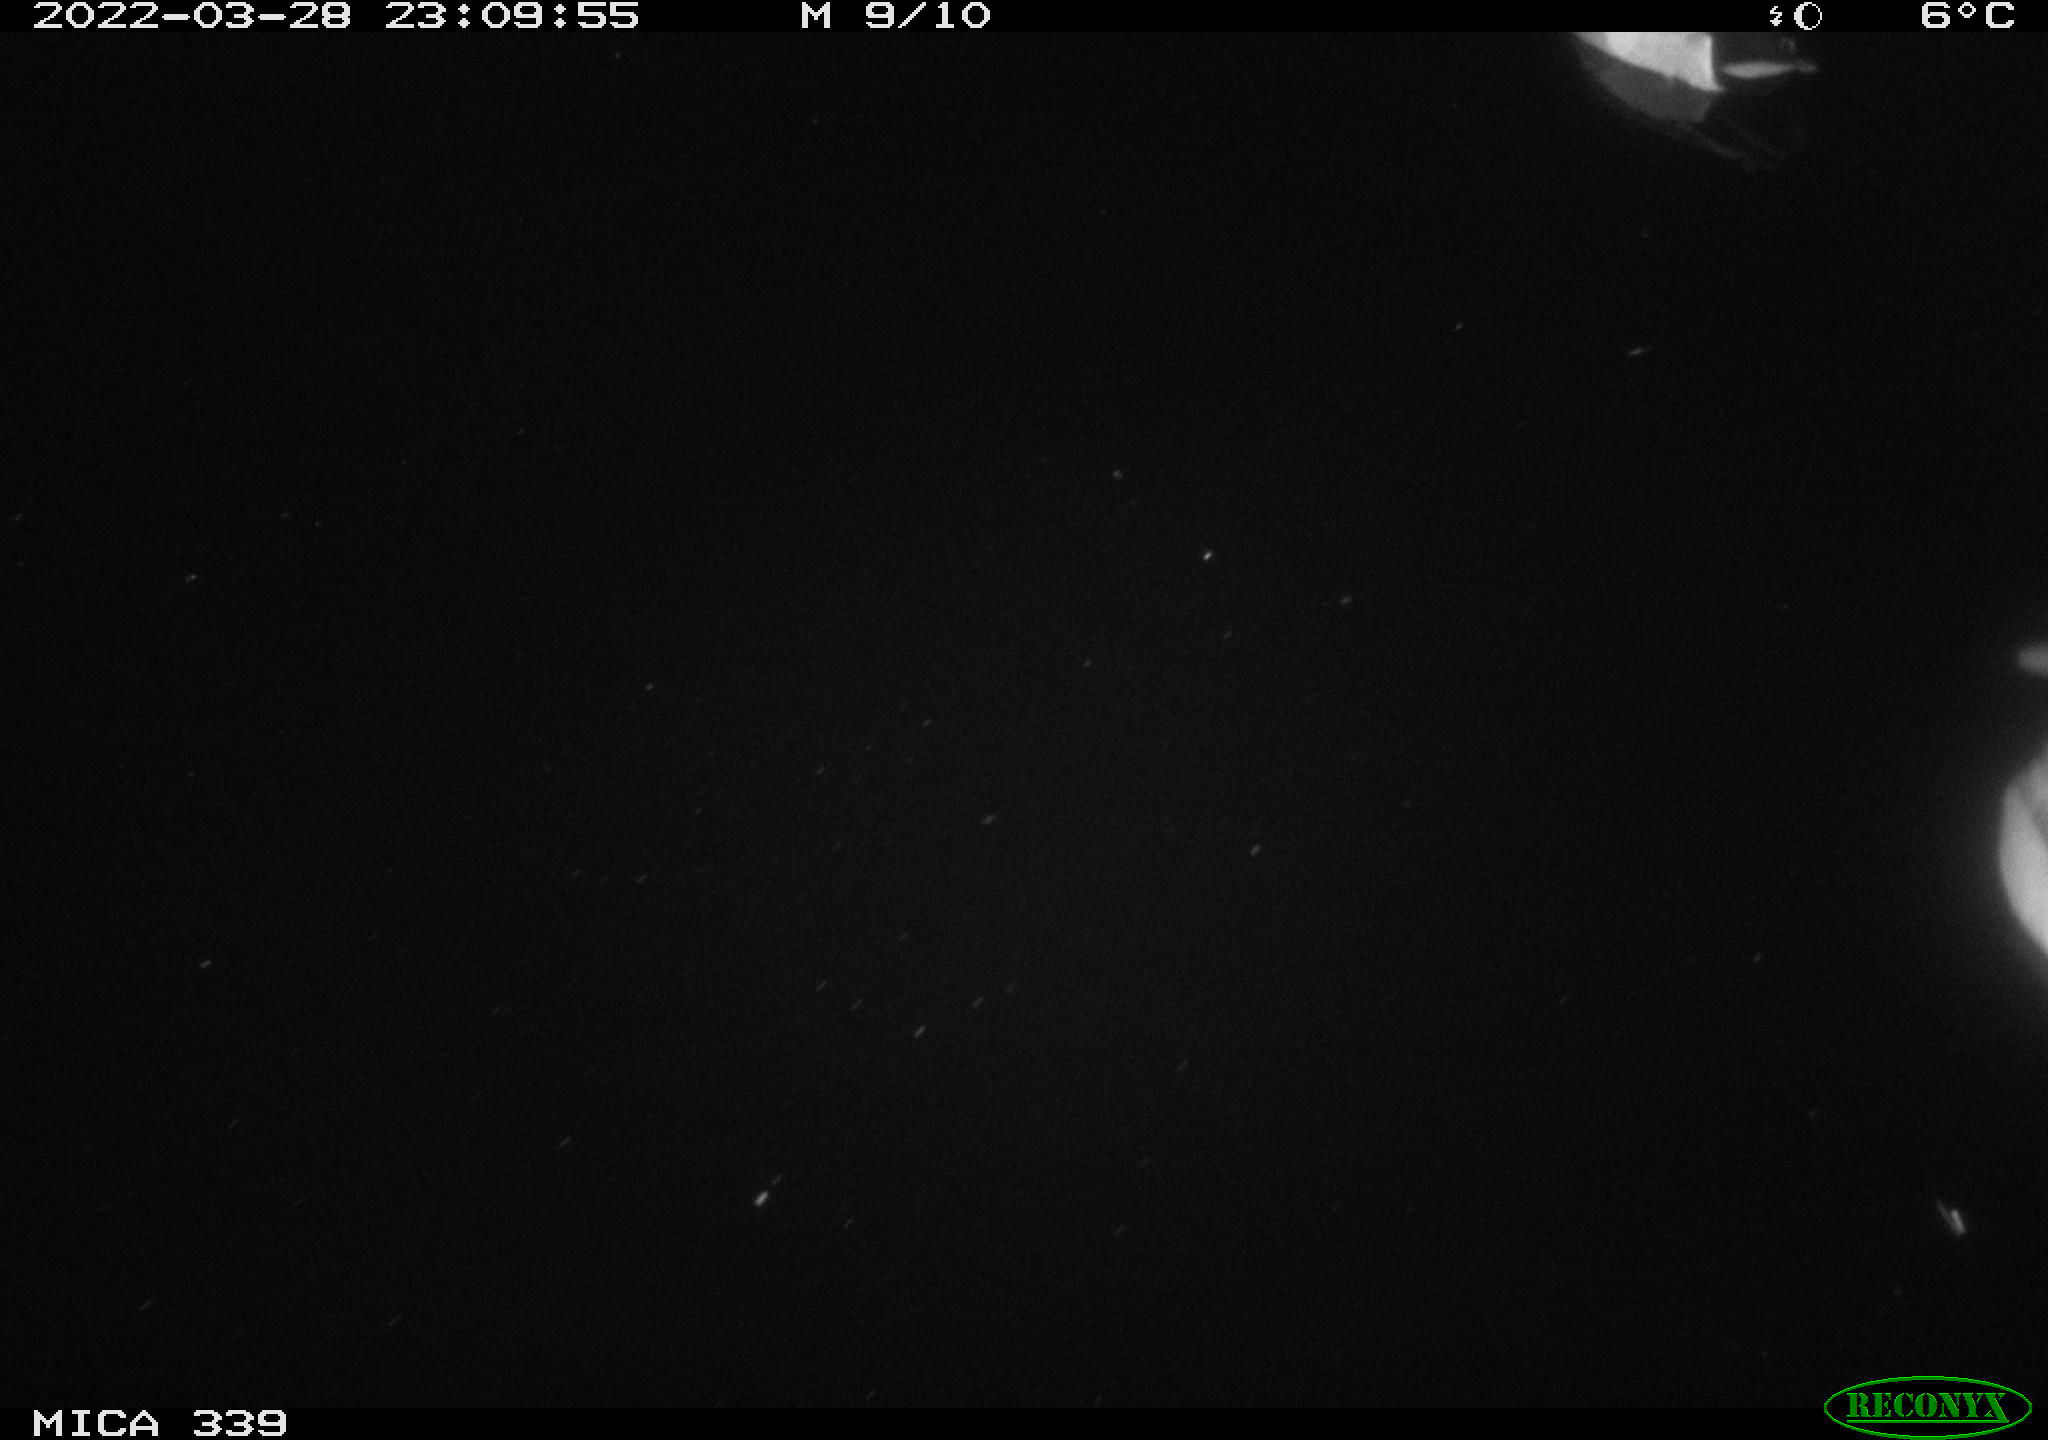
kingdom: Animalia
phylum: Chordata
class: Aves
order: Anseriformes
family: Anatidae
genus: Anas
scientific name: Anas platyrhynchos
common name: Mallard
